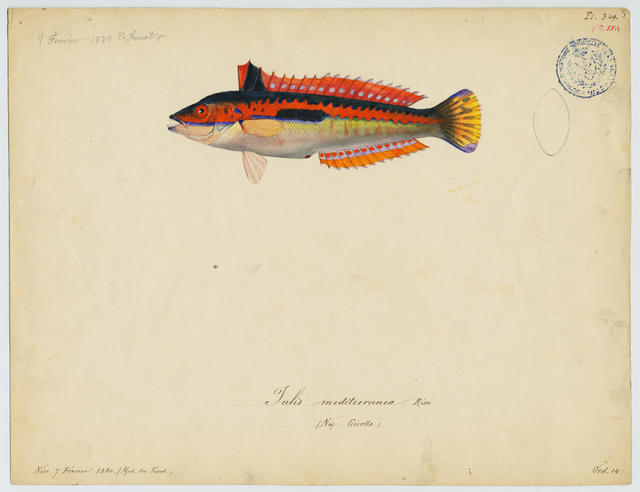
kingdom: Animalia
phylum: Chordata
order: Perciformes
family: Labridae
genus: Coris
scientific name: Coris julis
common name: Rainbow wrasse
